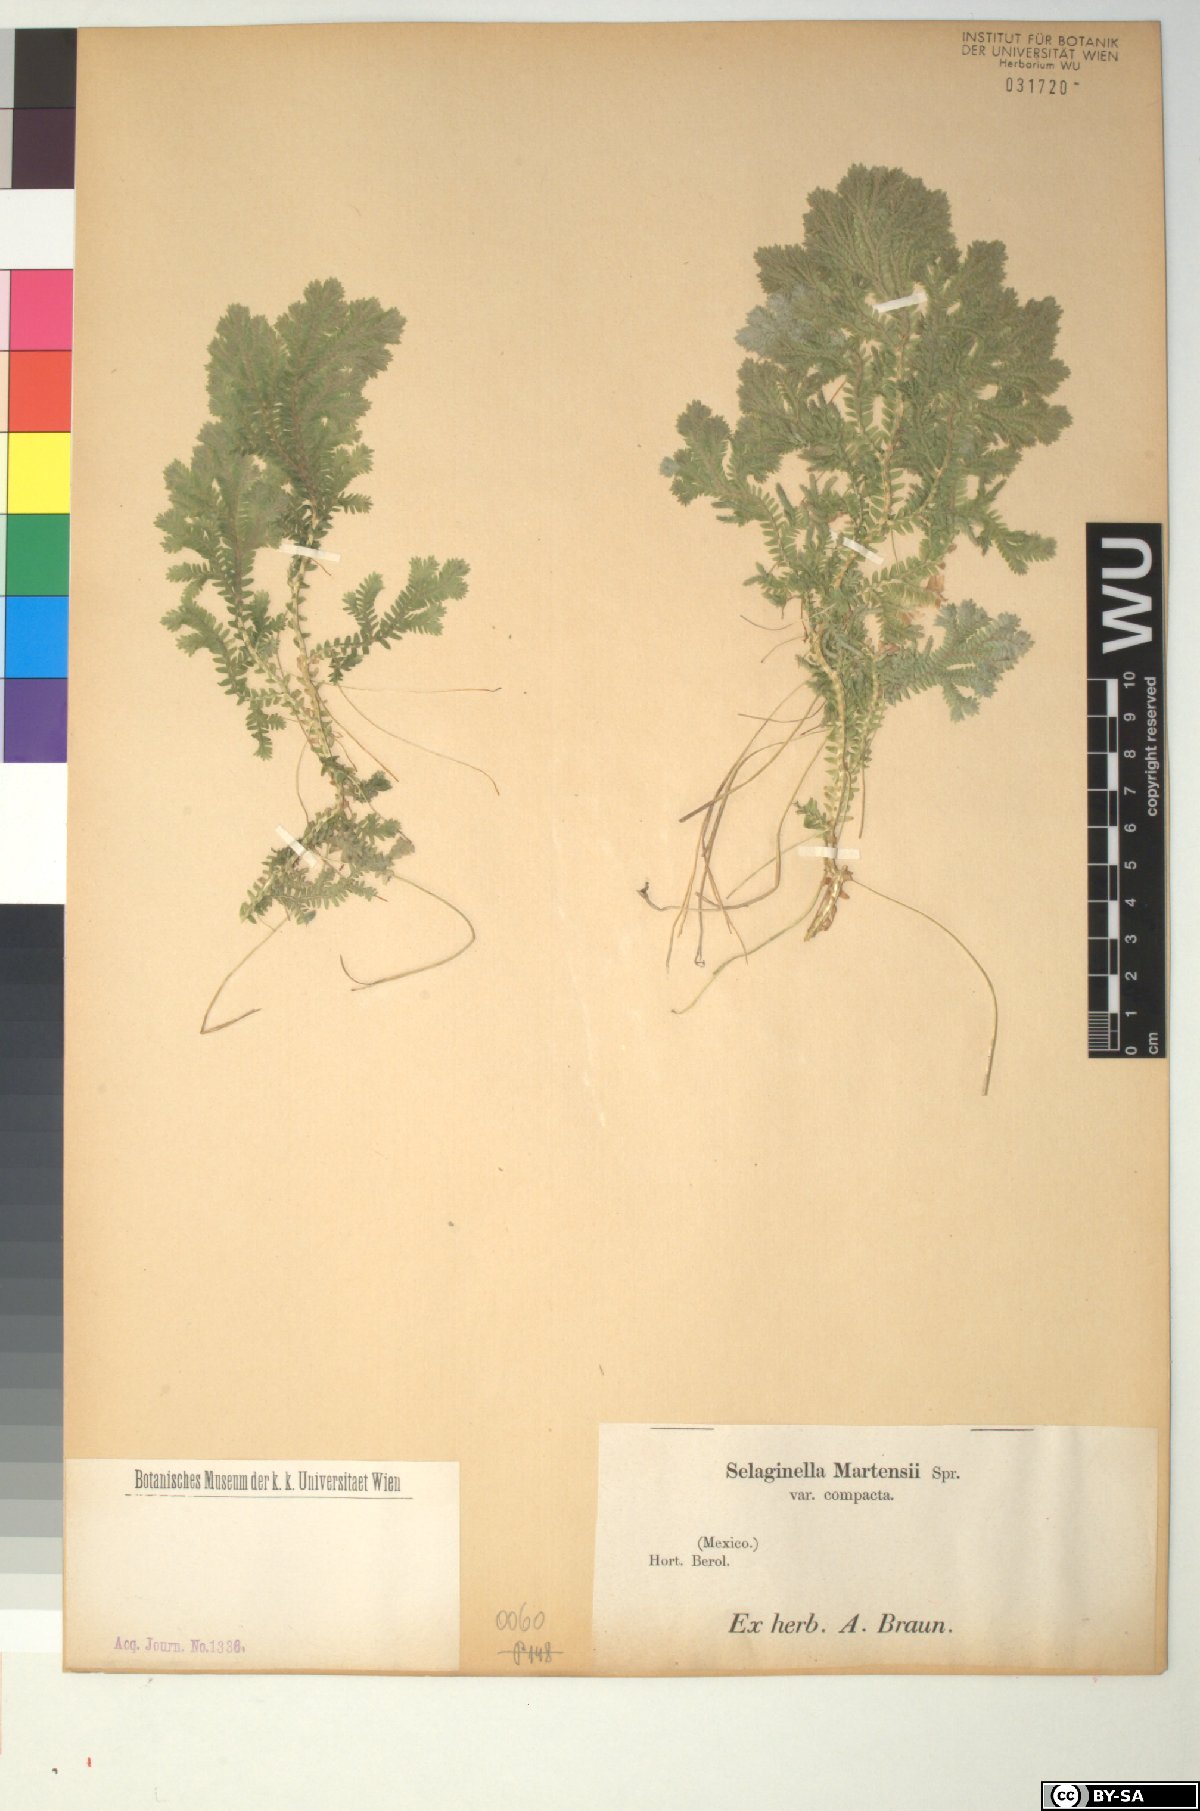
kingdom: Plantae
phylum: Tracheophyta
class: Lycopodiopsida
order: Selaginellales
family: Selaginellaceae
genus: Selaginella
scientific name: Selaginella conferta
